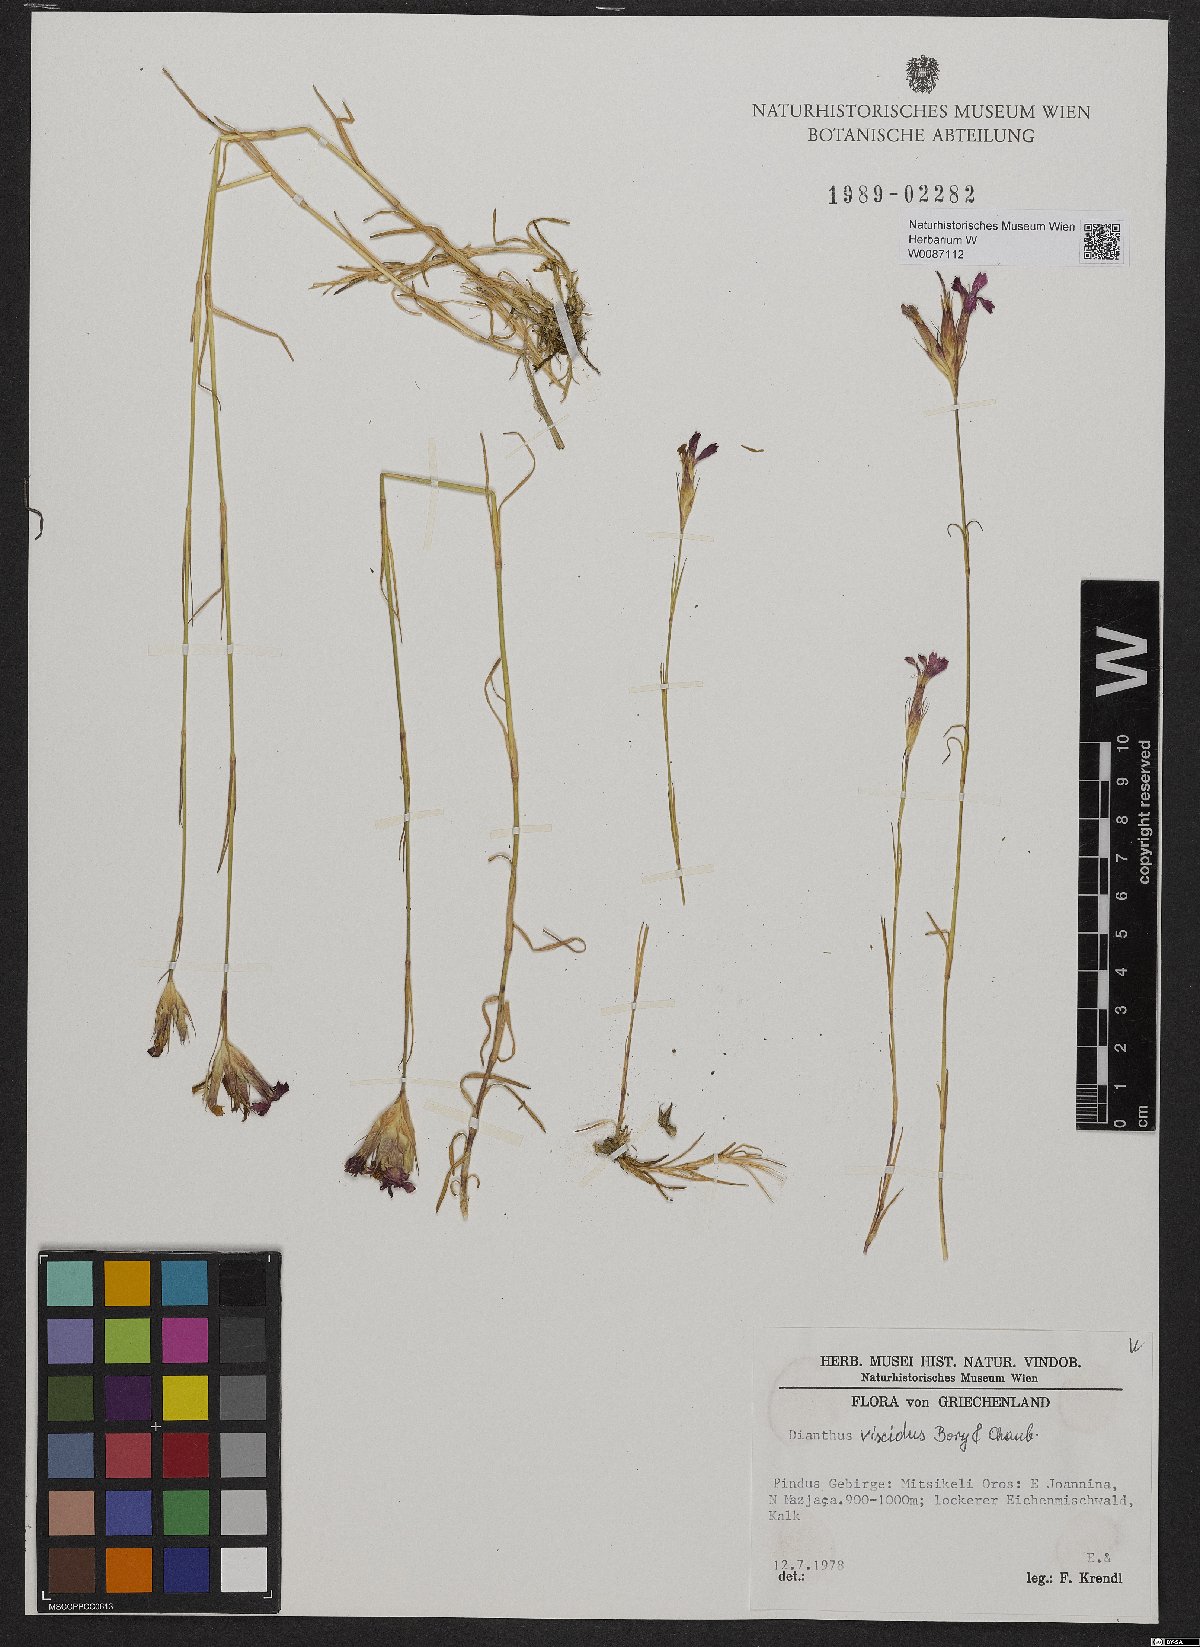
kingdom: Plantae
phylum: Tracheophyta
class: Magnoliopsida
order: Caryophyllales
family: Caryophyllaceae
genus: Dianthus
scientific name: Dianthus viscidus
